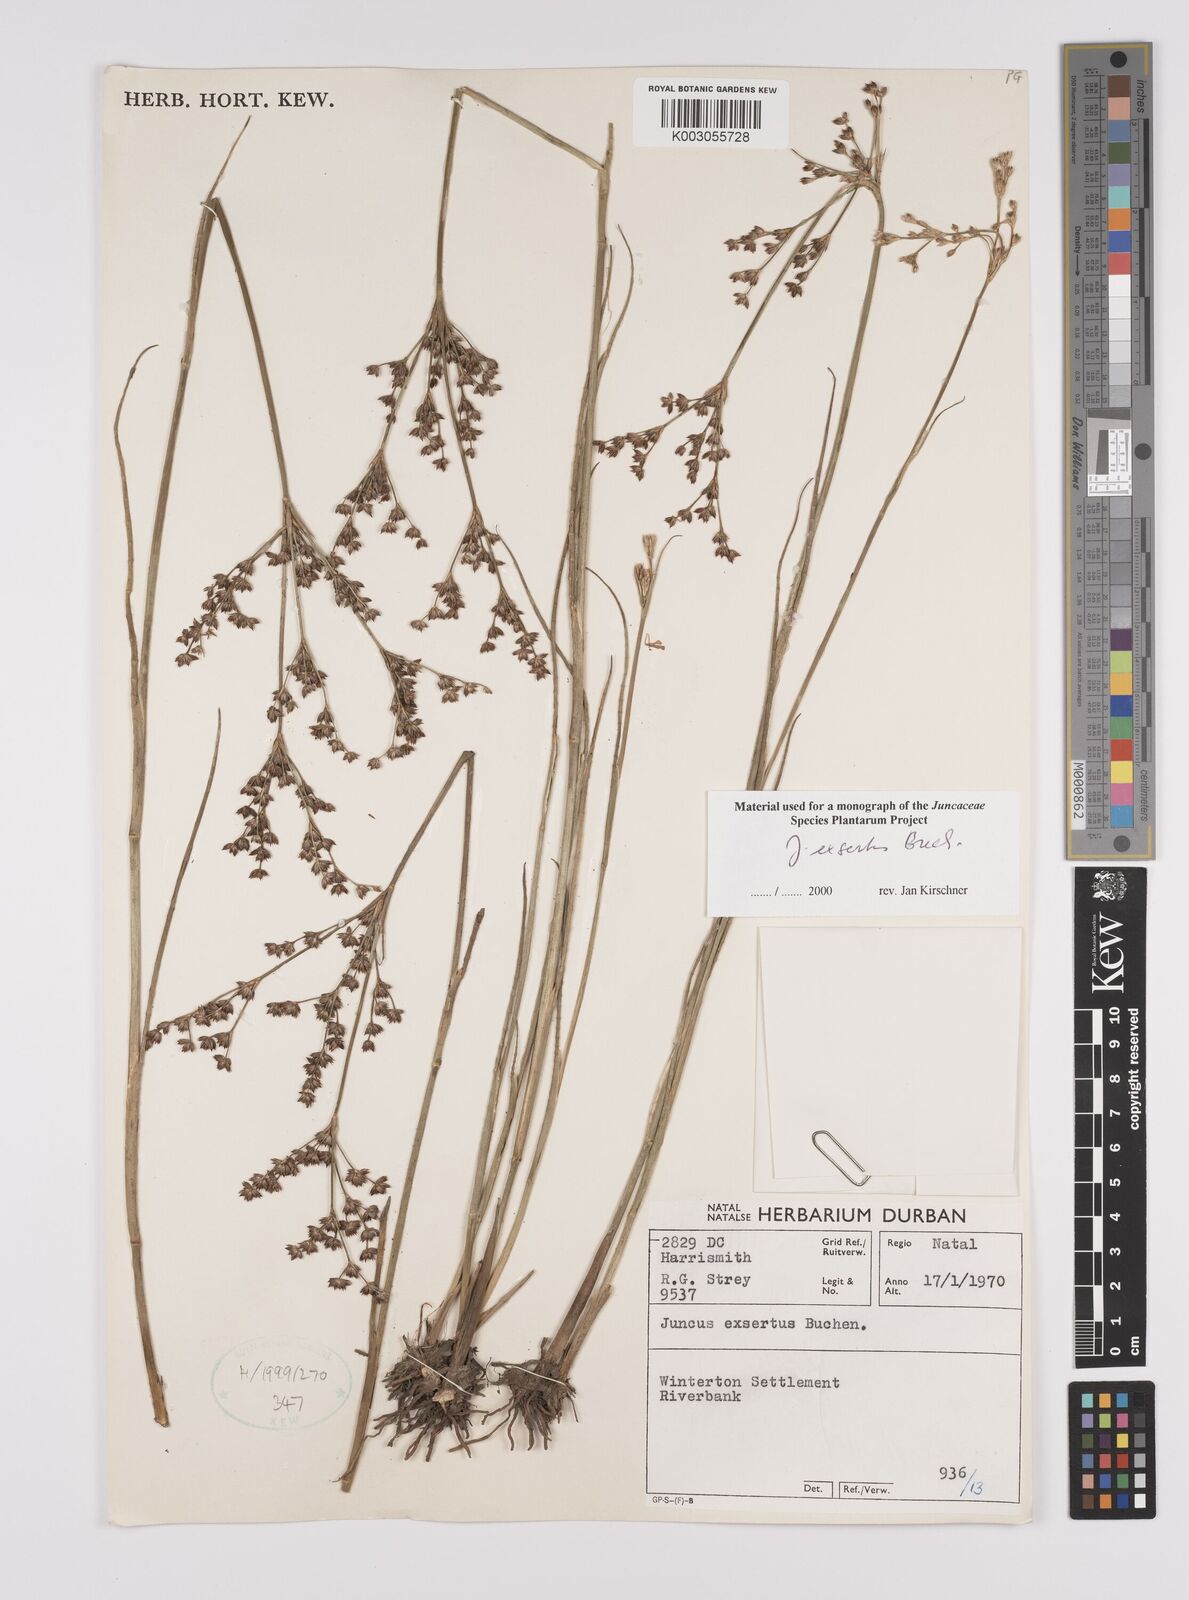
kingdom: Plantae
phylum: Tracheophyta
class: Liliopsida
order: Poales
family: Juncaceae
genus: Juncus
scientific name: Juncus exsertus
